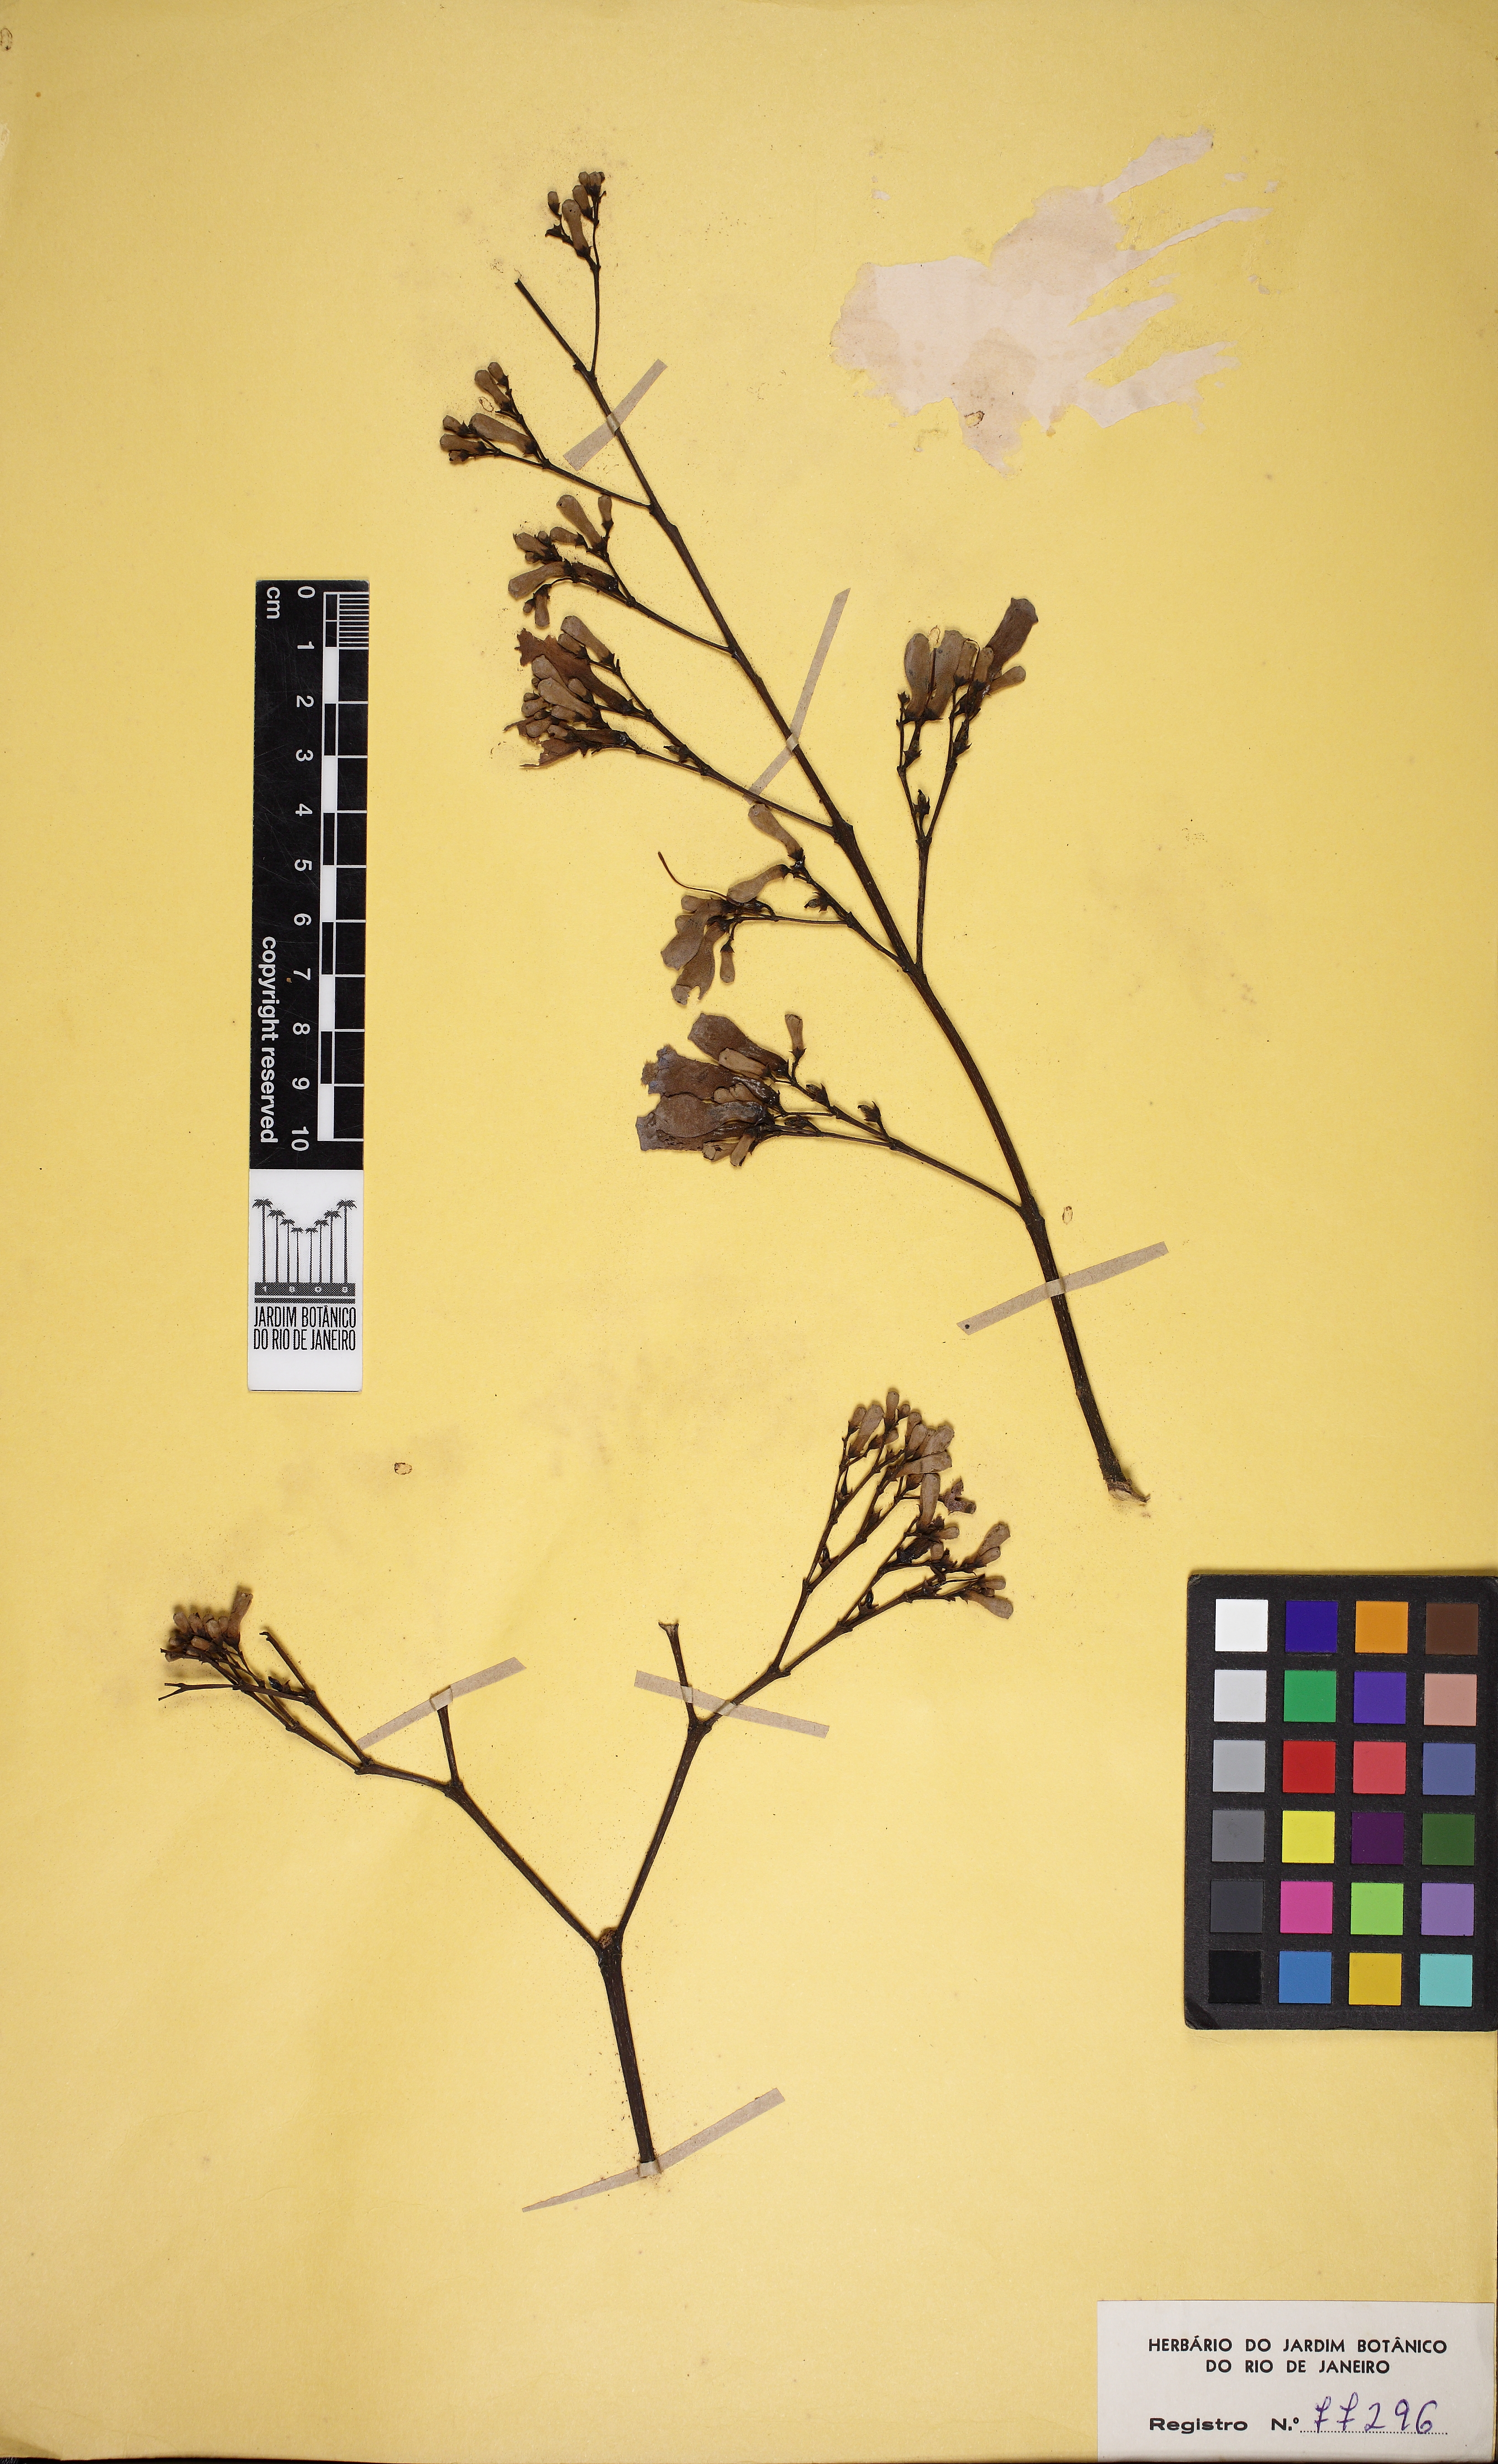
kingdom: Plantae
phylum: Tracheophyta
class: Magnoliopsida
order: Lamiales
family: Bignoniaceae
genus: Jacaranda
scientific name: Jacaranda acutifolia
